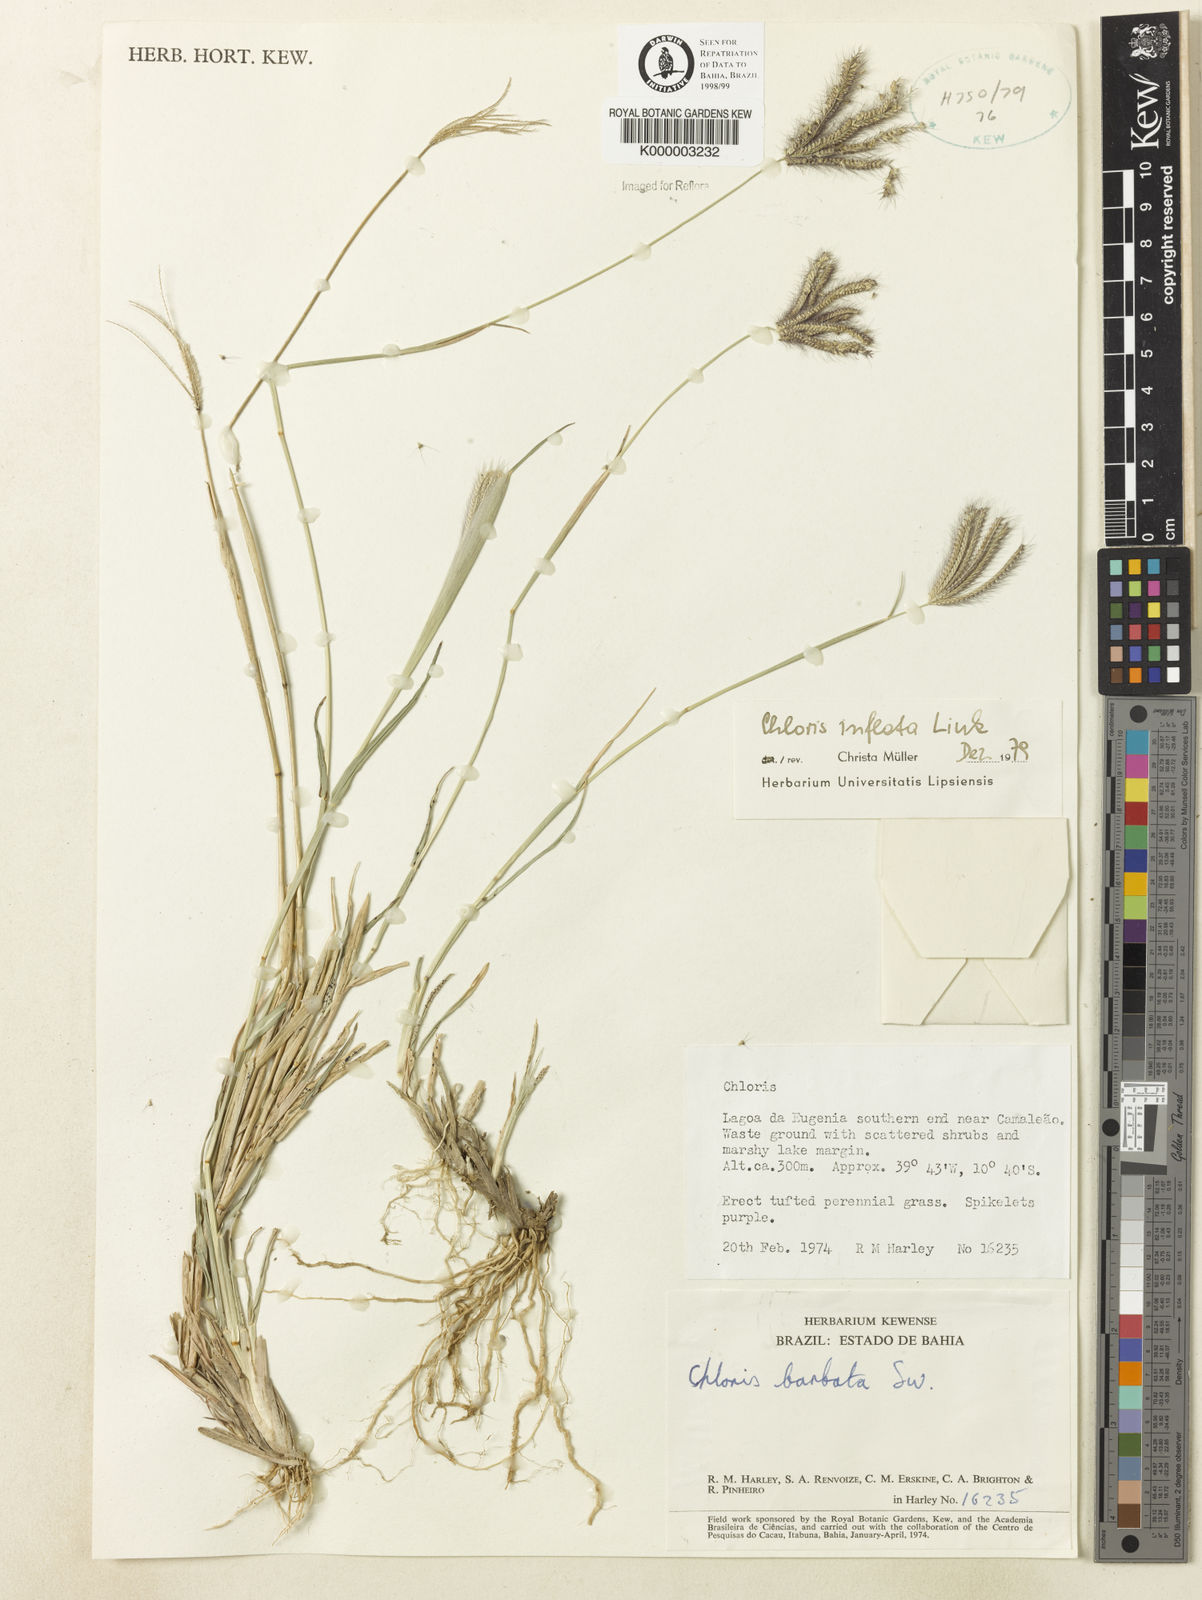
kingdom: Plantae
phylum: Tracheophyta
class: Liliopsida
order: Poales
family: Poaceae
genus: Chloris
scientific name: Chloris
